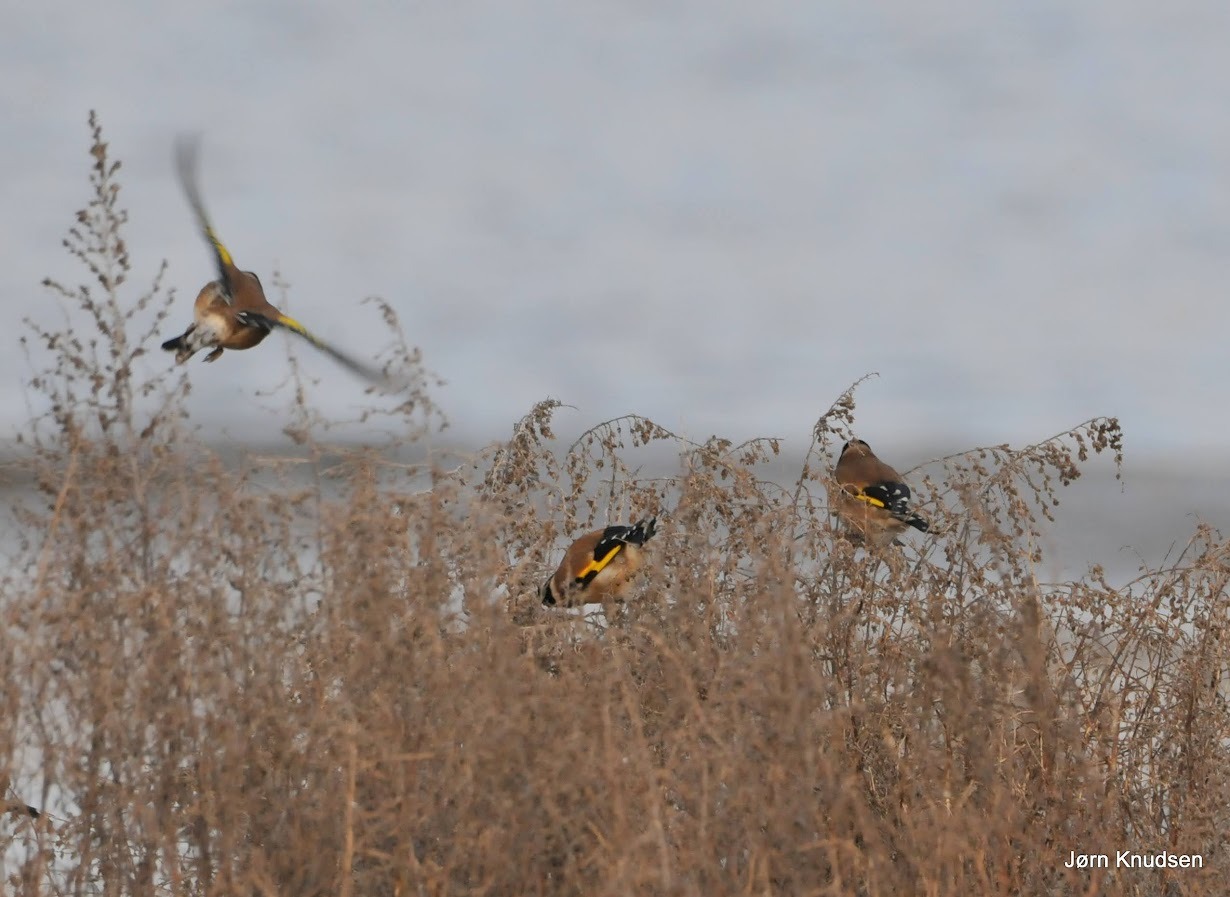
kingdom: Animalia
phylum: Chordata
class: Aves
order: Passeriformes
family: Fringillidae
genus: Carduelis
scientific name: Carduelis carduelis
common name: Stillits
